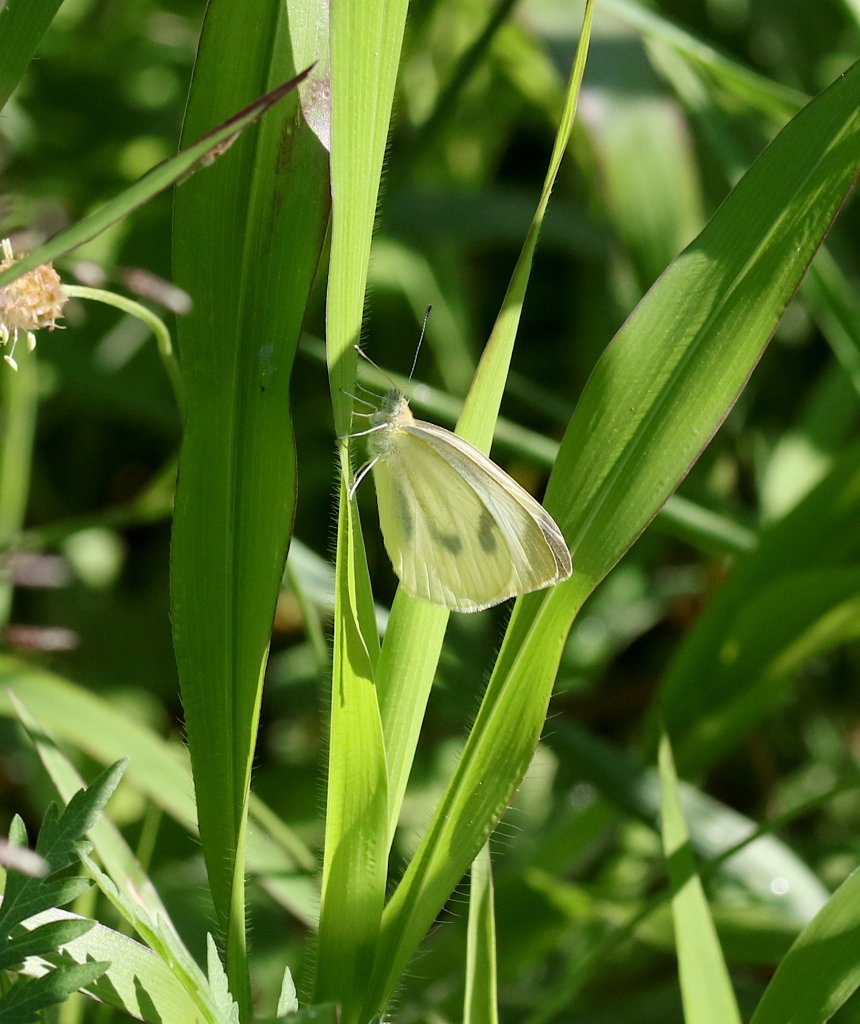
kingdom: Animalia
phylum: Arthropoda
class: Insecta
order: Lepidoptera
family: Pieridae
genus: Pieris
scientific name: Pieris rapae
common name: Cabbage White
